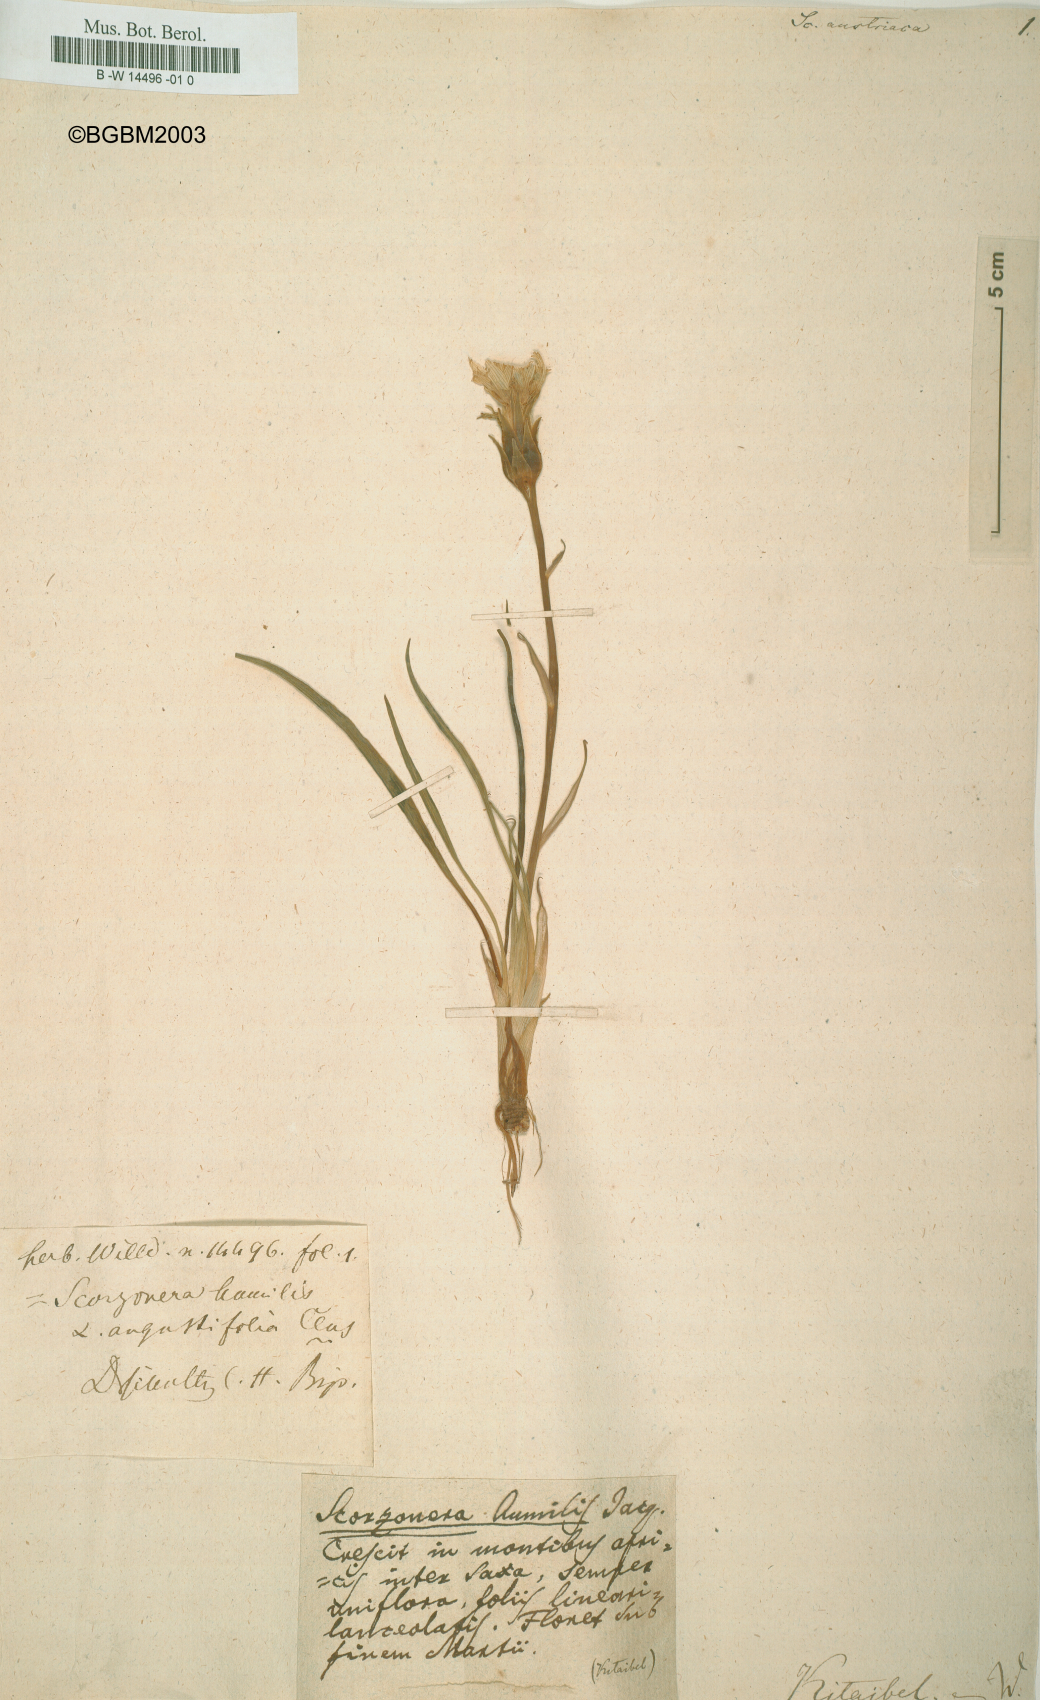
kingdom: Plantae
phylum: Tracheophyta
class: Magnoliopsida
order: Asterales
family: Asteraceae
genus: Scorzonera
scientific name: Scorzonera austriaca
